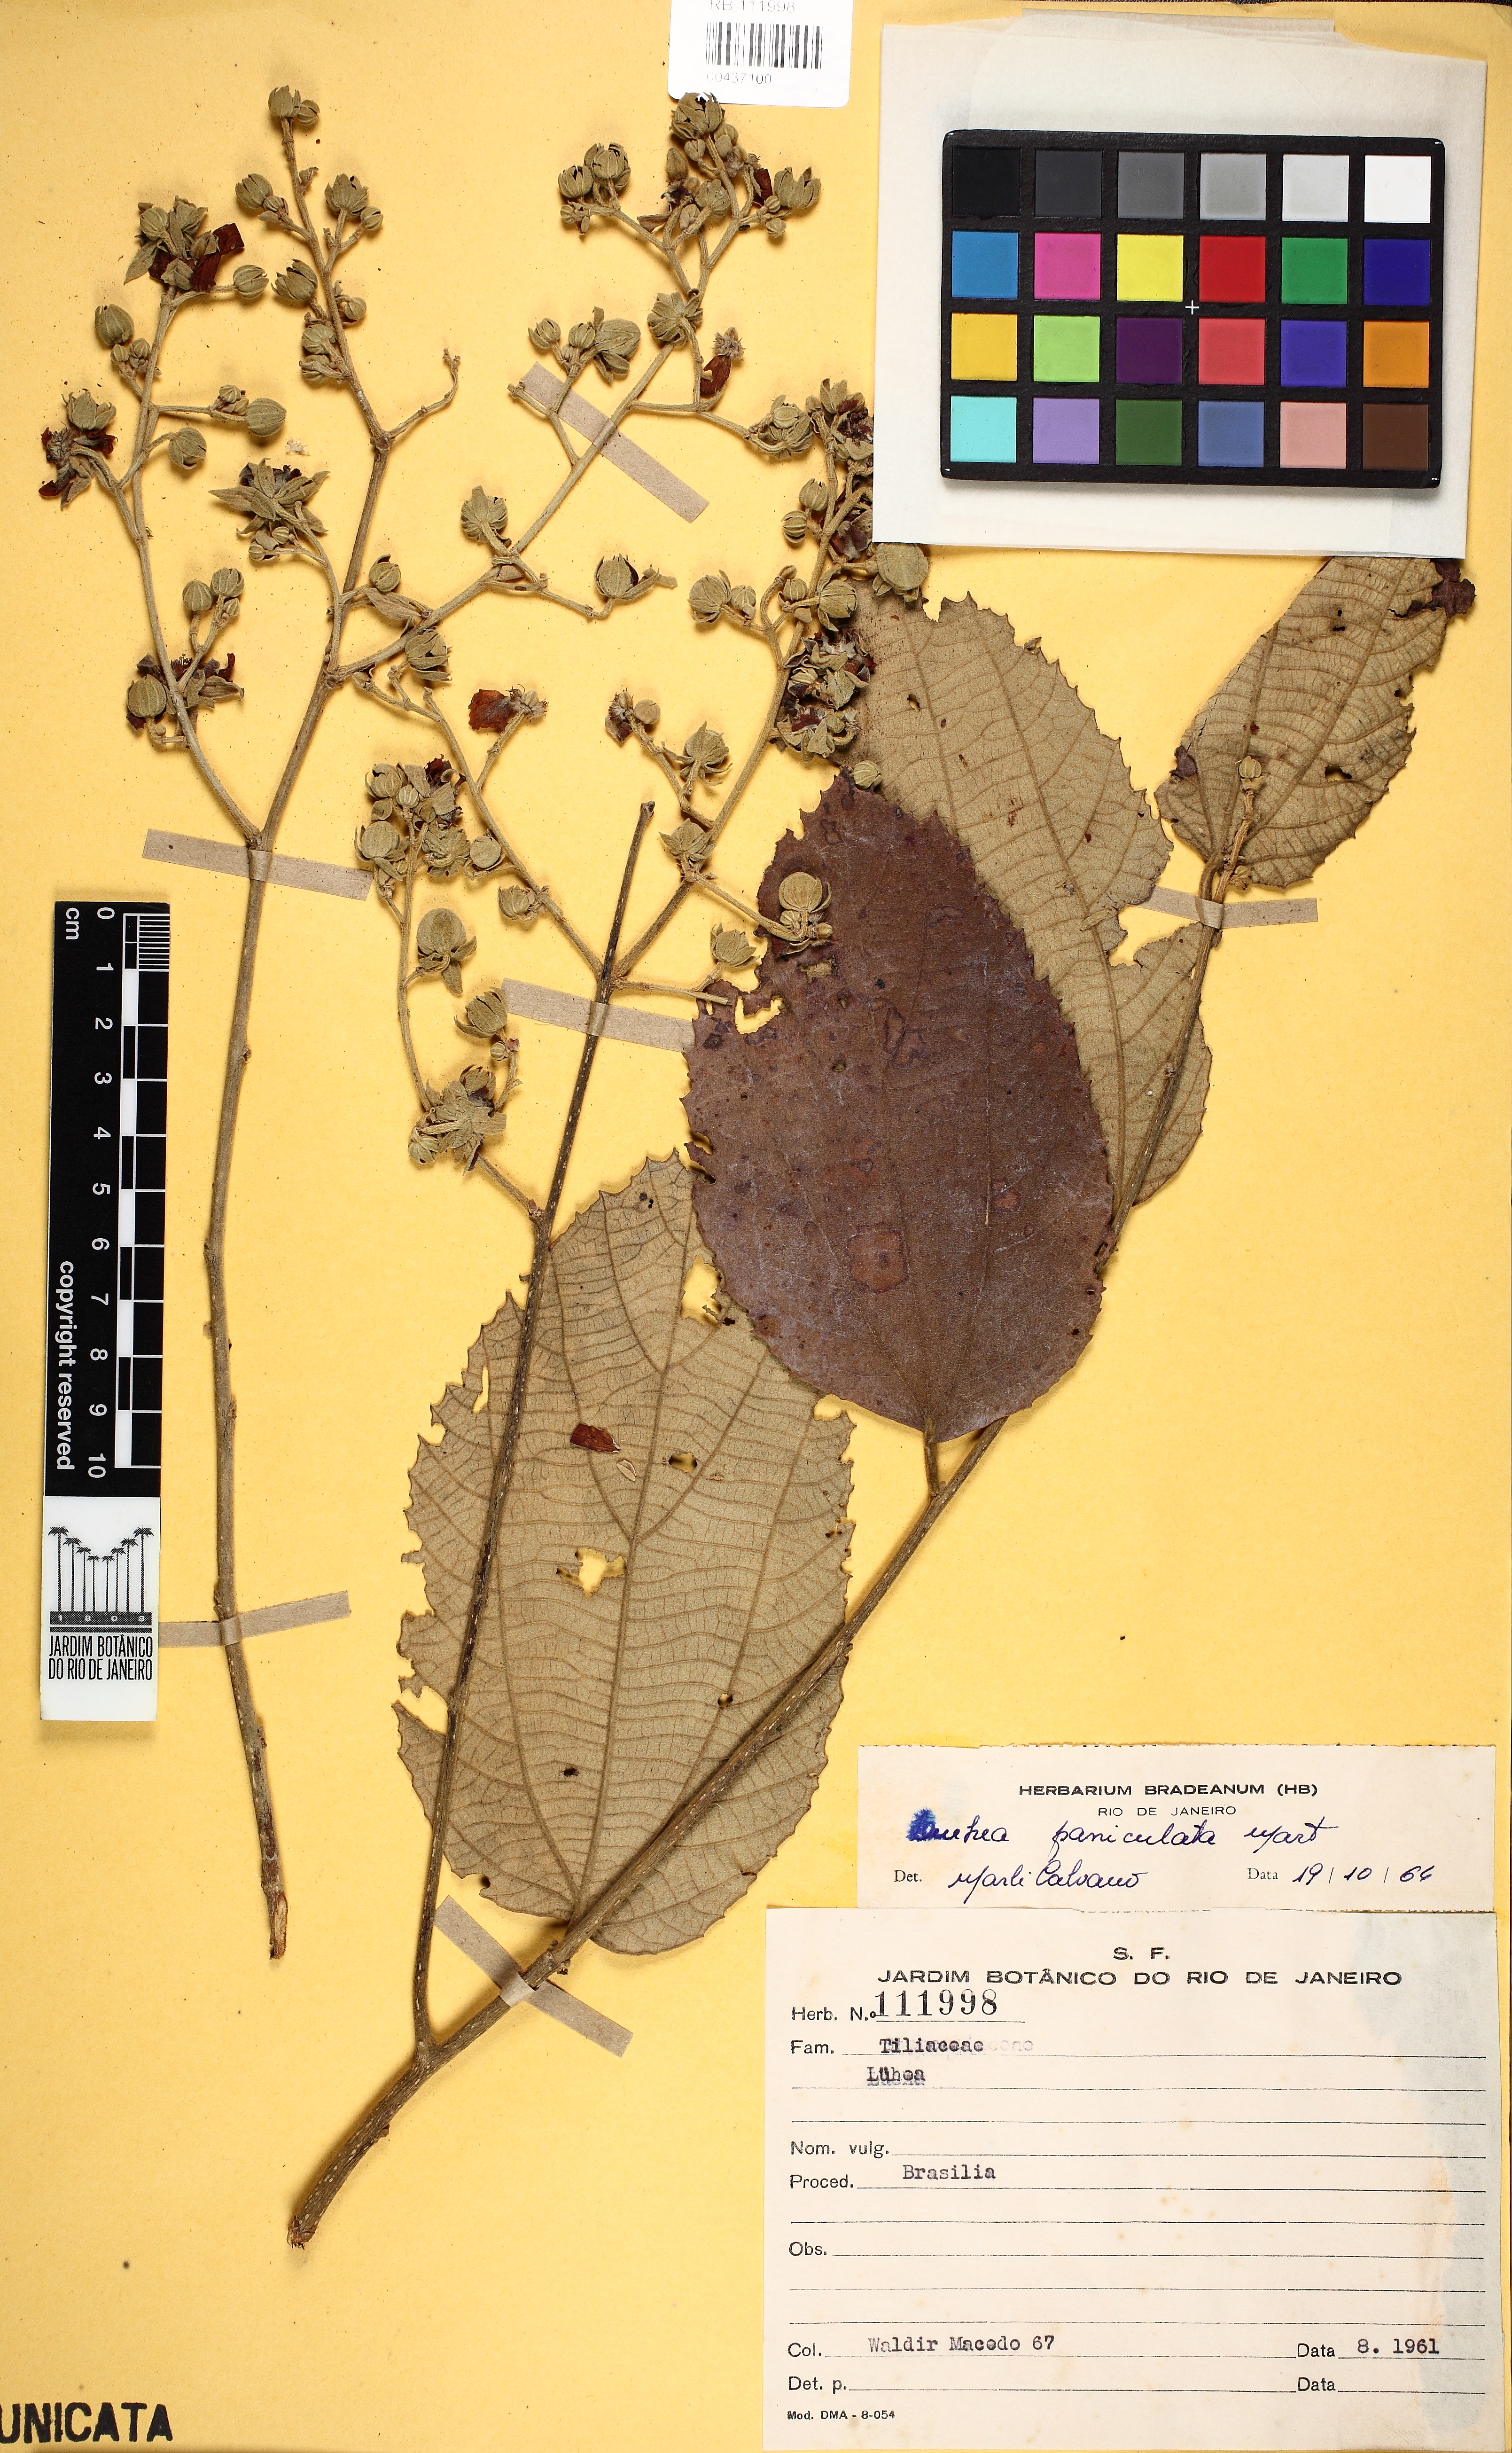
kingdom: Plantae
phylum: Tracheophyta
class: Magnoliopsida
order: Malvales
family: Malvaceae
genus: Luehea
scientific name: Luehea paniculata
